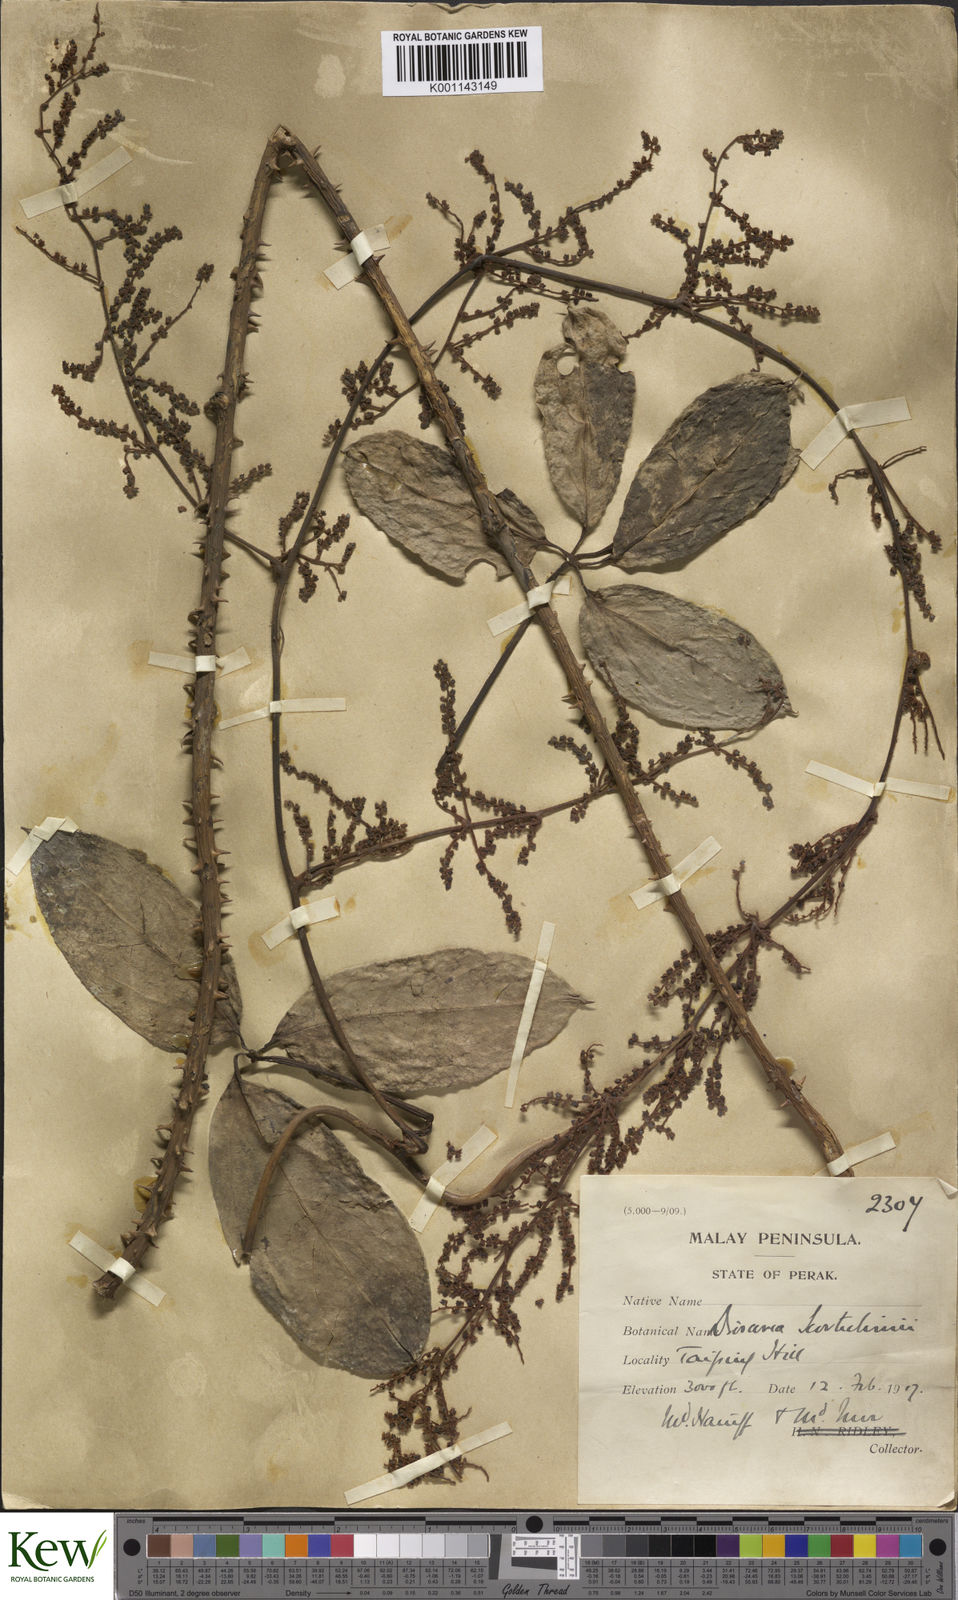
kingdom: Plantae
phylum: Tracheophyta
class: Liliopsida
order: Dioscoreales
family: Dioscoreaceae
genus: Dioscorea
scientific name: Dioscorea scortechinii
